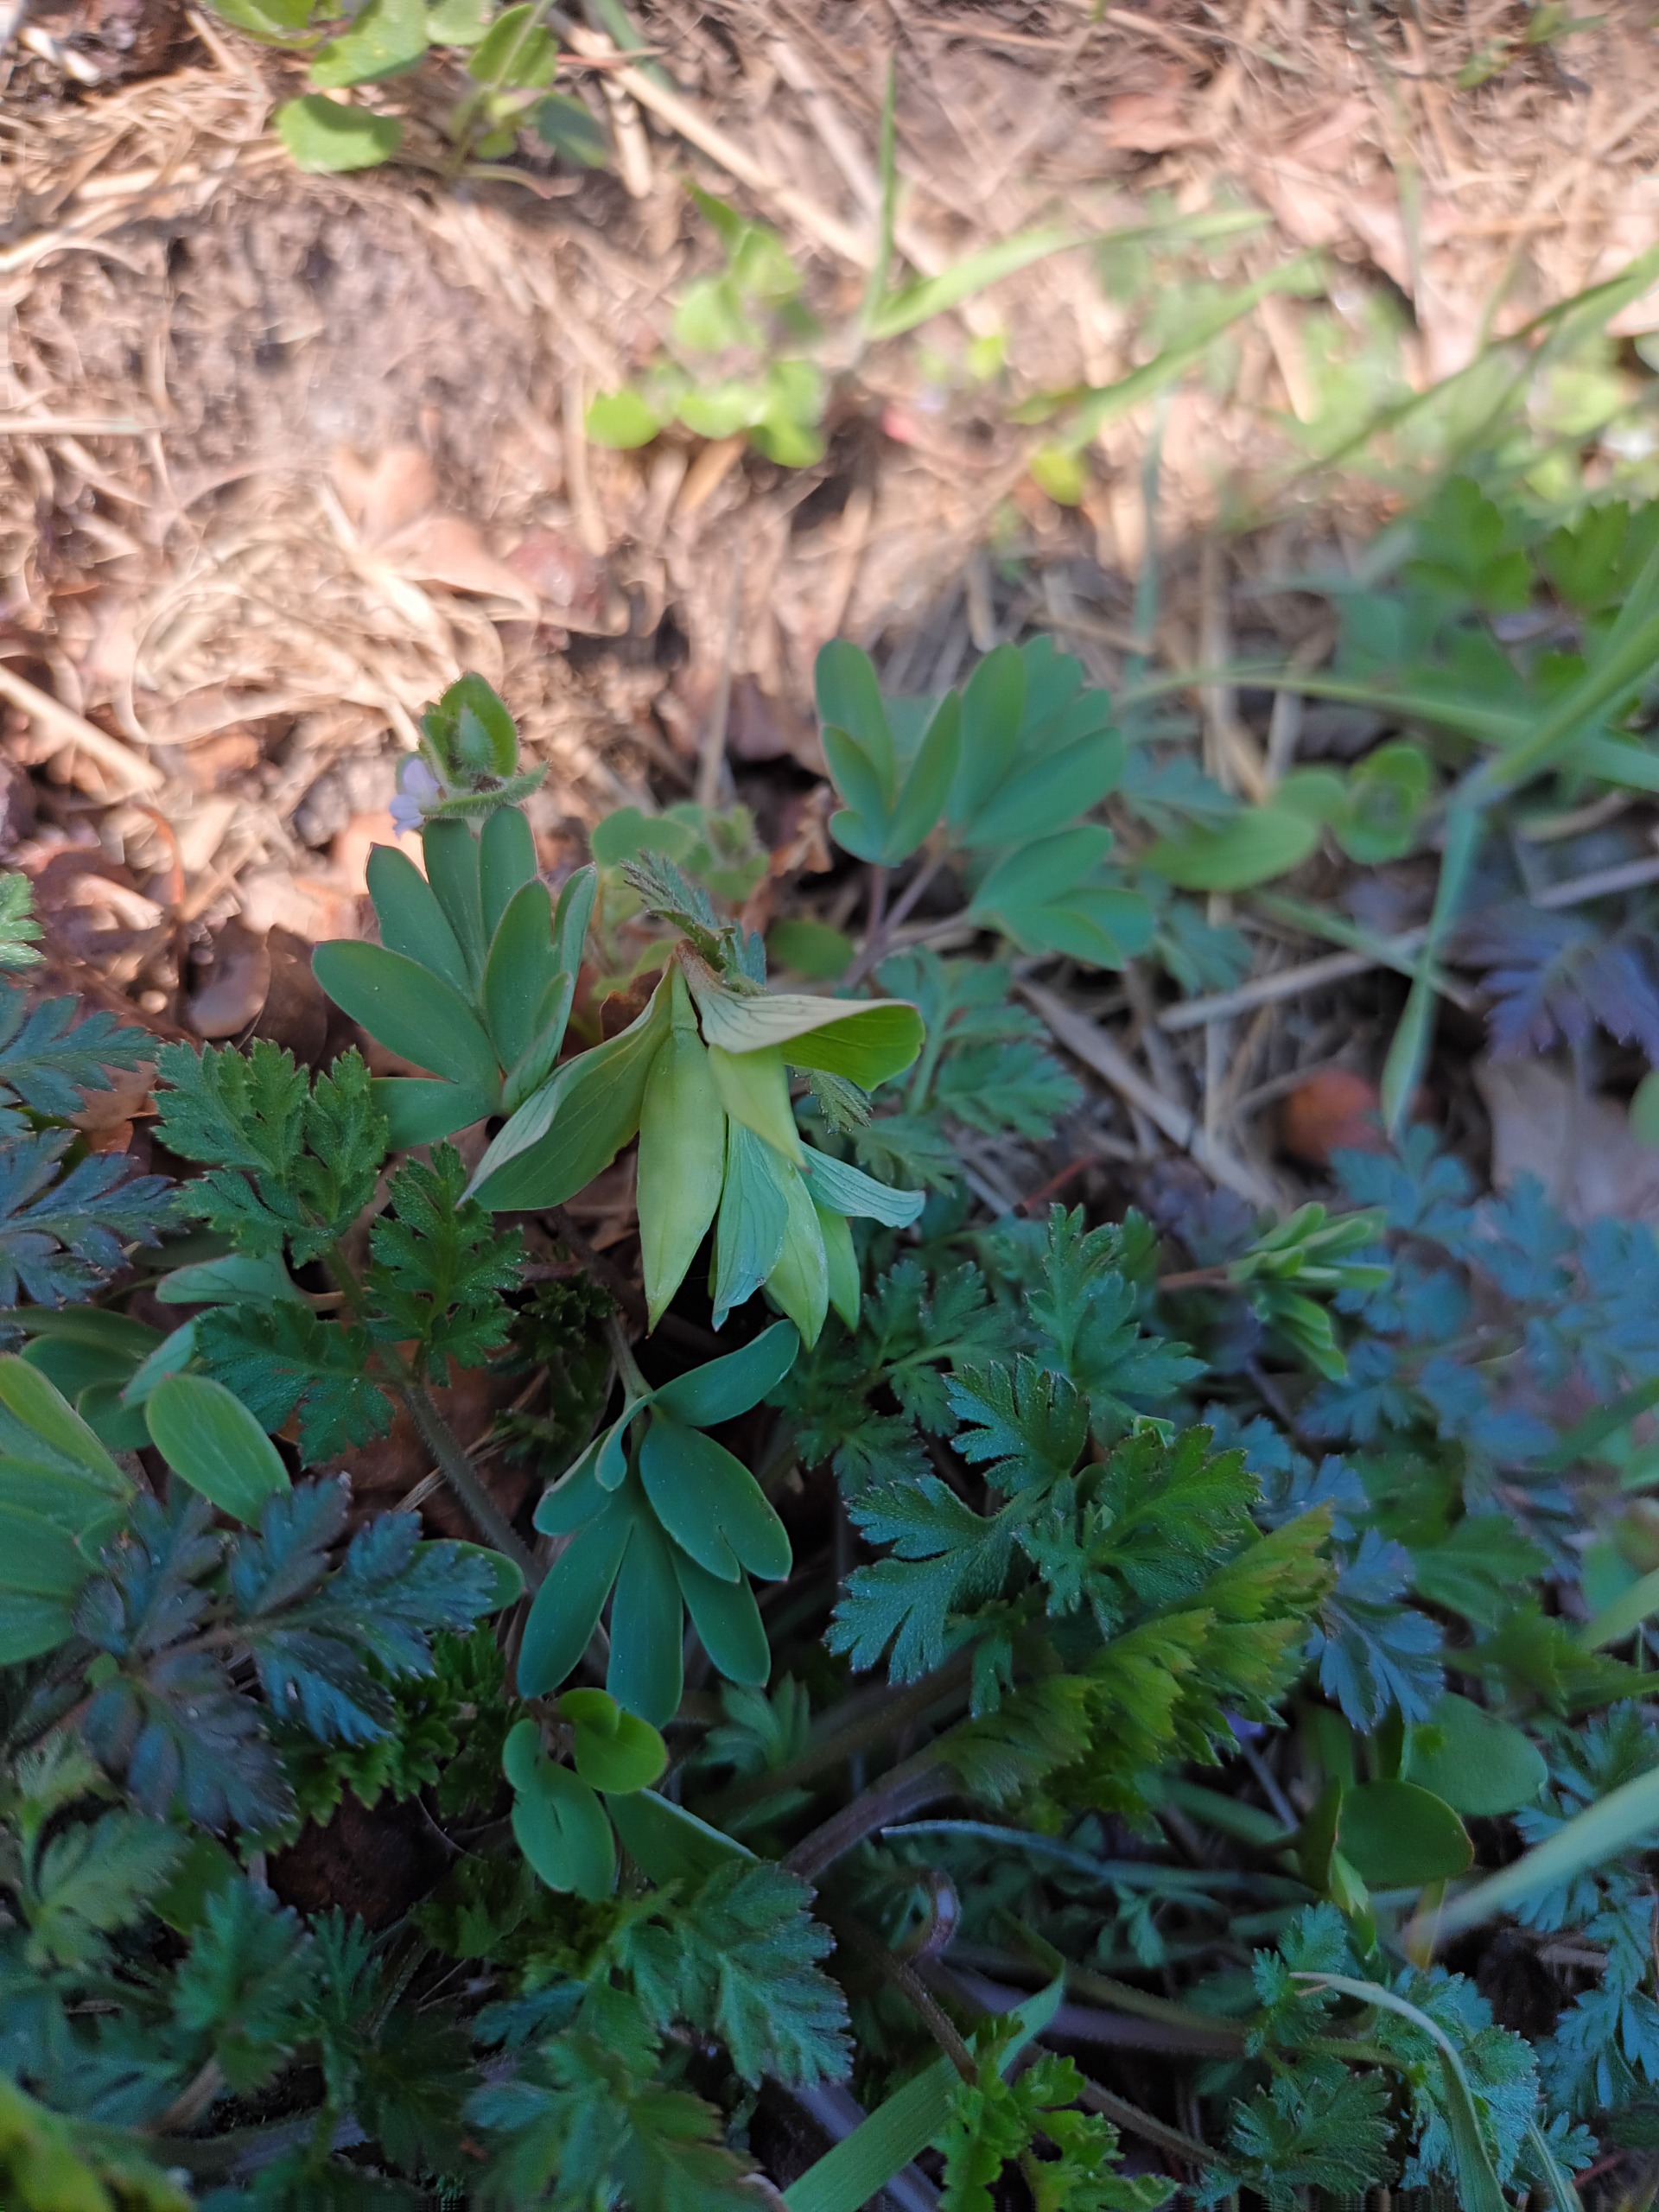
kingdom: Plantae
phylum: Tracheophyta
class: Magnoliopsida
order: Ranunculales
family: Papaveraceae
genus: Corydalis
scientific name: Corydalis intermedia
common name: Liden lærkespore
